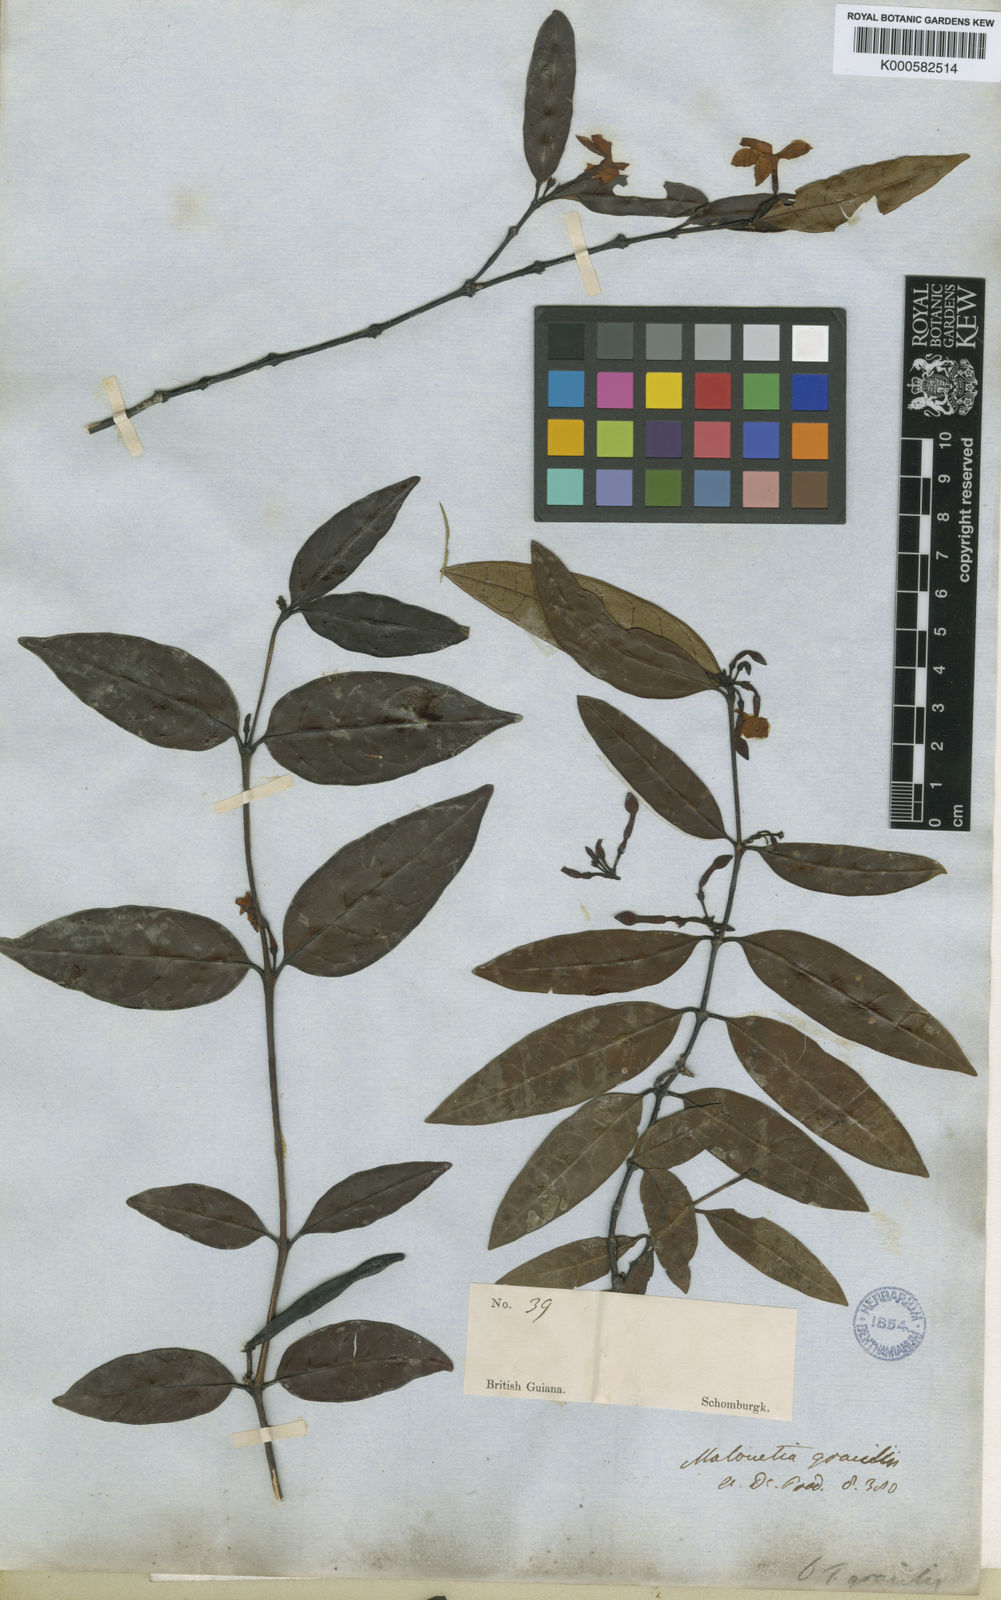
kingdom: Plantae
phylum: Tracheophyta
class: Magnoliopsida
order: Gentianales
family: Apocynaceae
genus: Malouetia
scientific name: Malouetia gracilis
